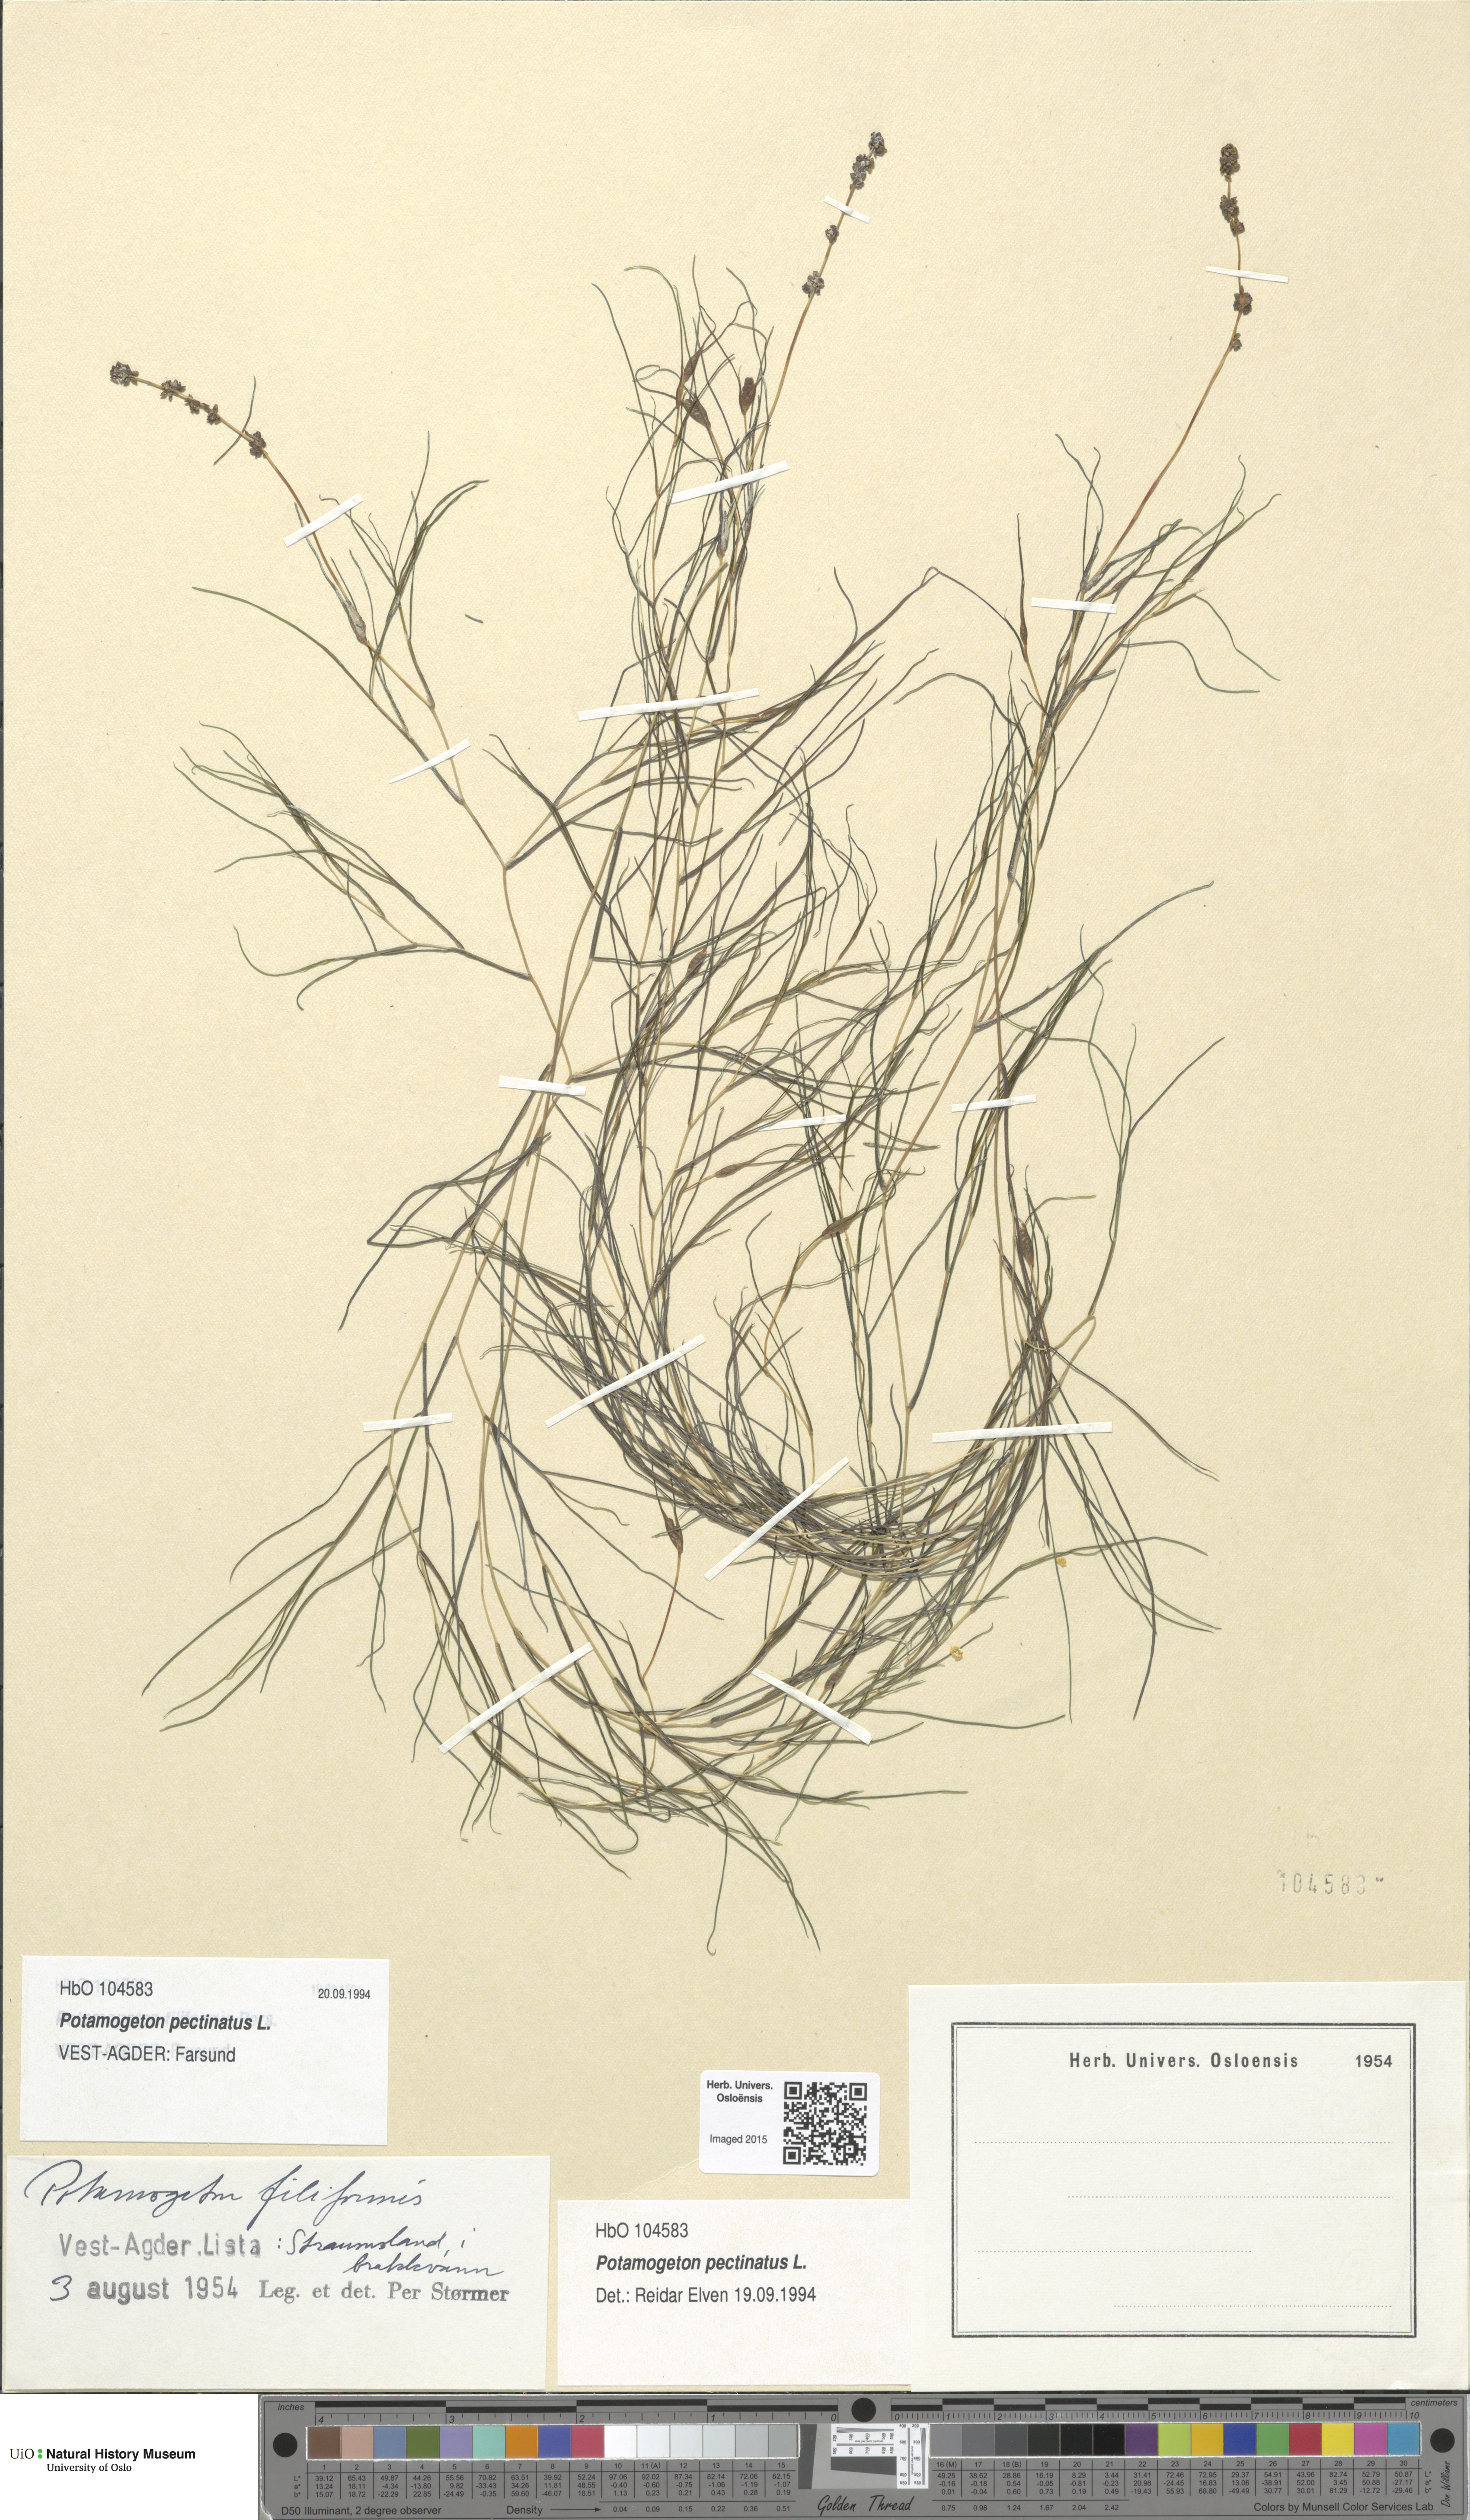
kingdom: Plantae
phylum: Tracheophyta
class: Liliopsida
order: Alismatales
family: Potamogetonaceae
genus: Stuckenia
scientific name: Stuckenia pectinata
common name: Sago pondweed
